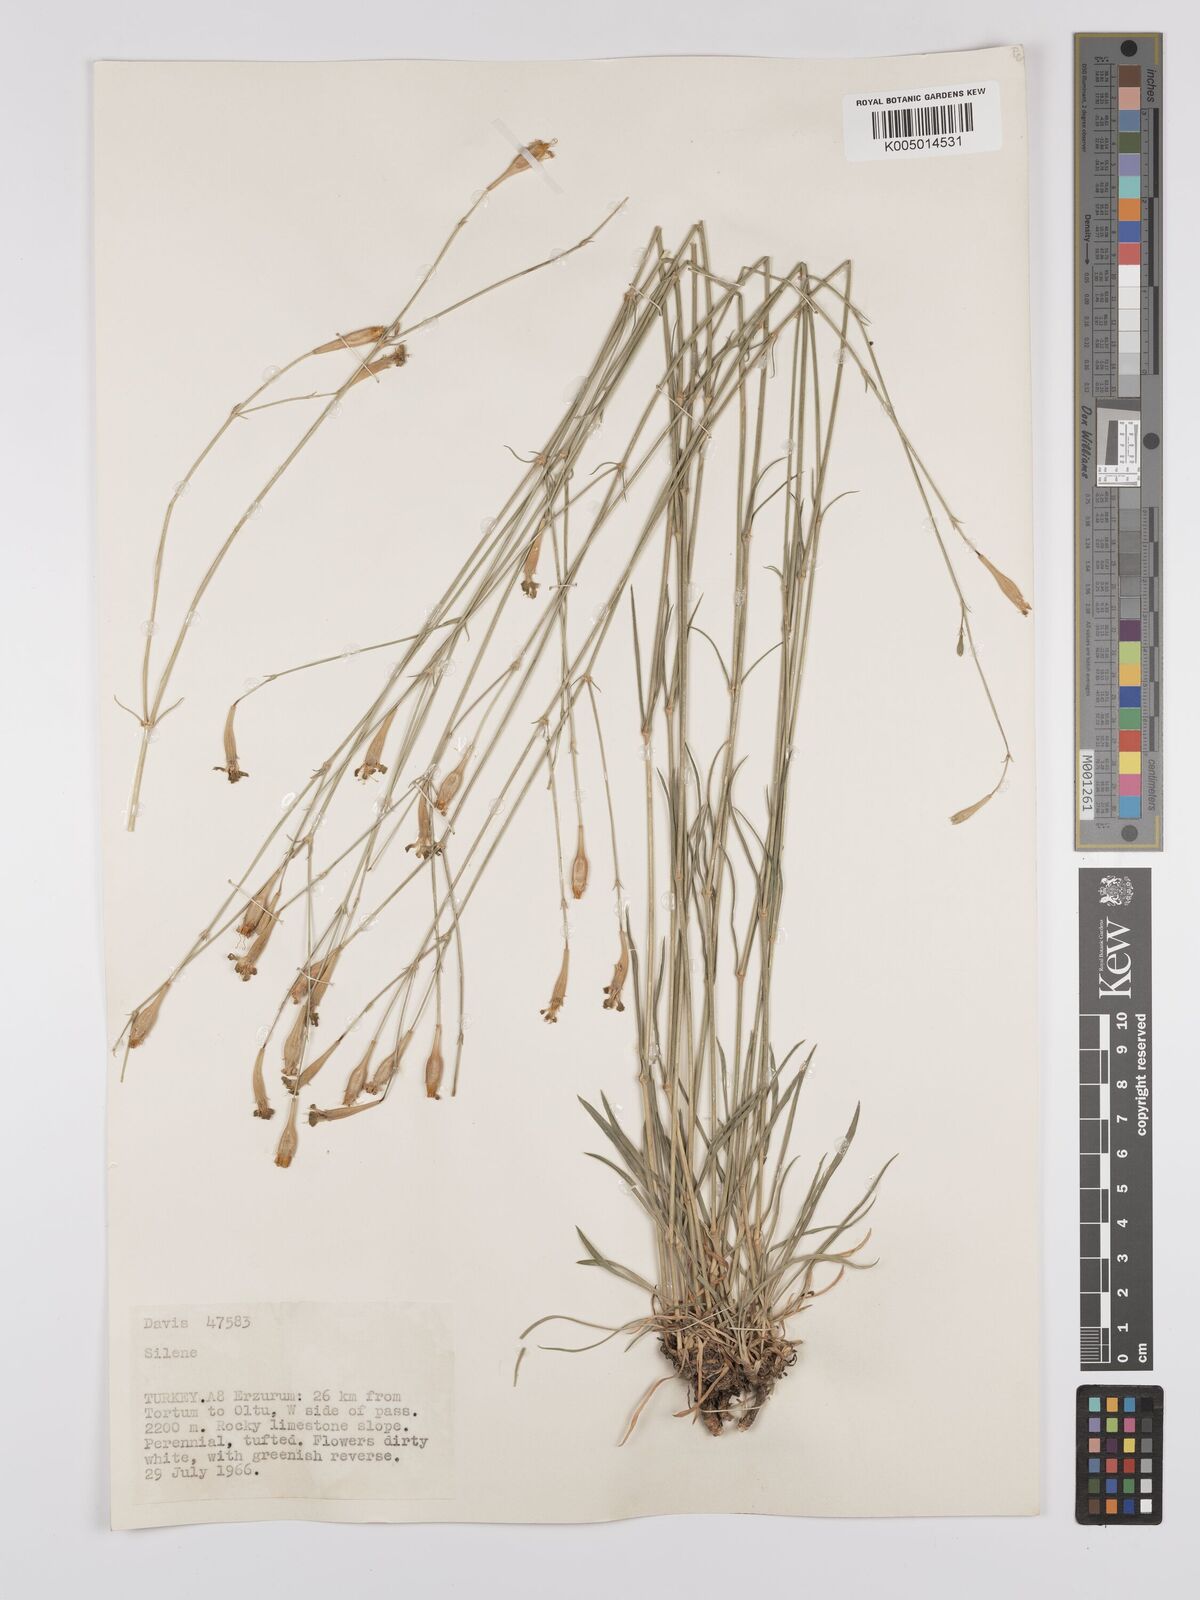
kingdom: Plantae
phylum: Tracheophyta
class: Magnoliopsida
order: Caryophyllales
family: Caryophyllaceae
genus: Silene
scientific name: Silene
